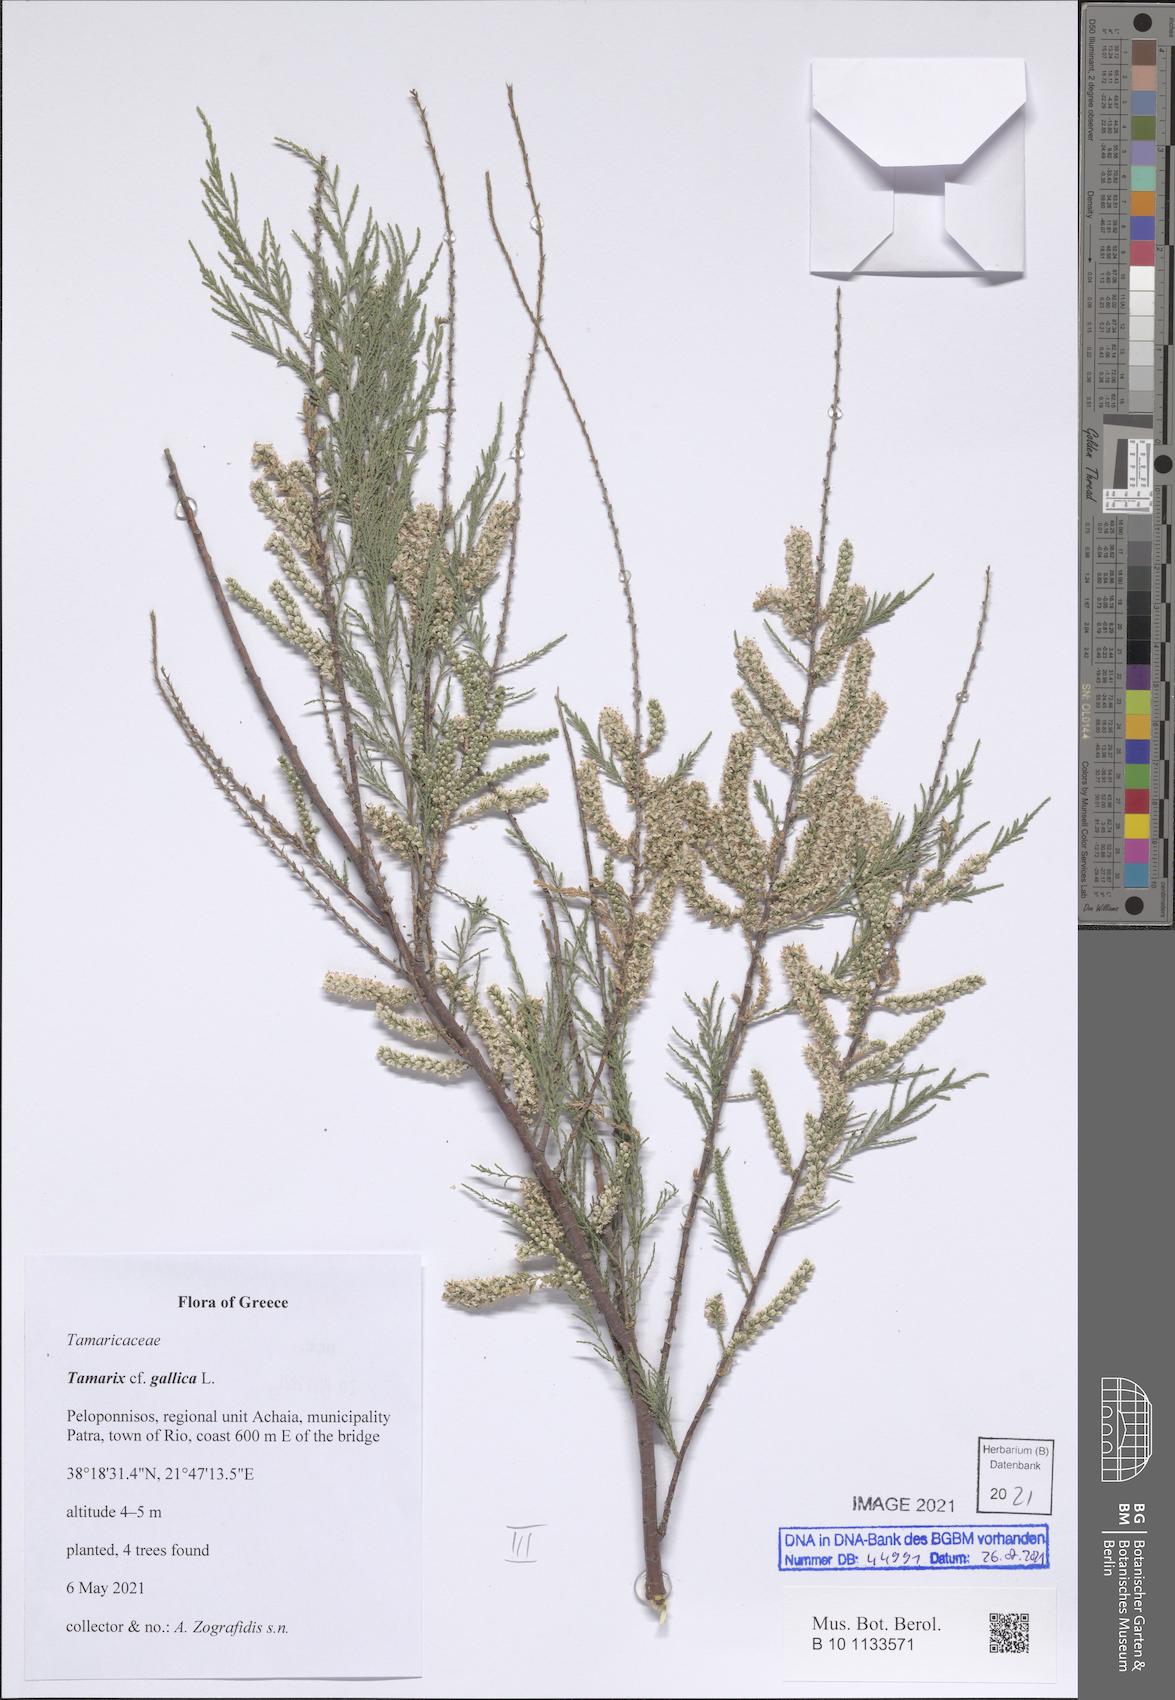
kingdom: Plantae
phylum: Tracheophyta
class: Magnoliopsida
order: Caryophyllales
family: Tamaricaceae
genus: Tamarix
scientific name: Tamarix gallica
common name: Tamarisk
